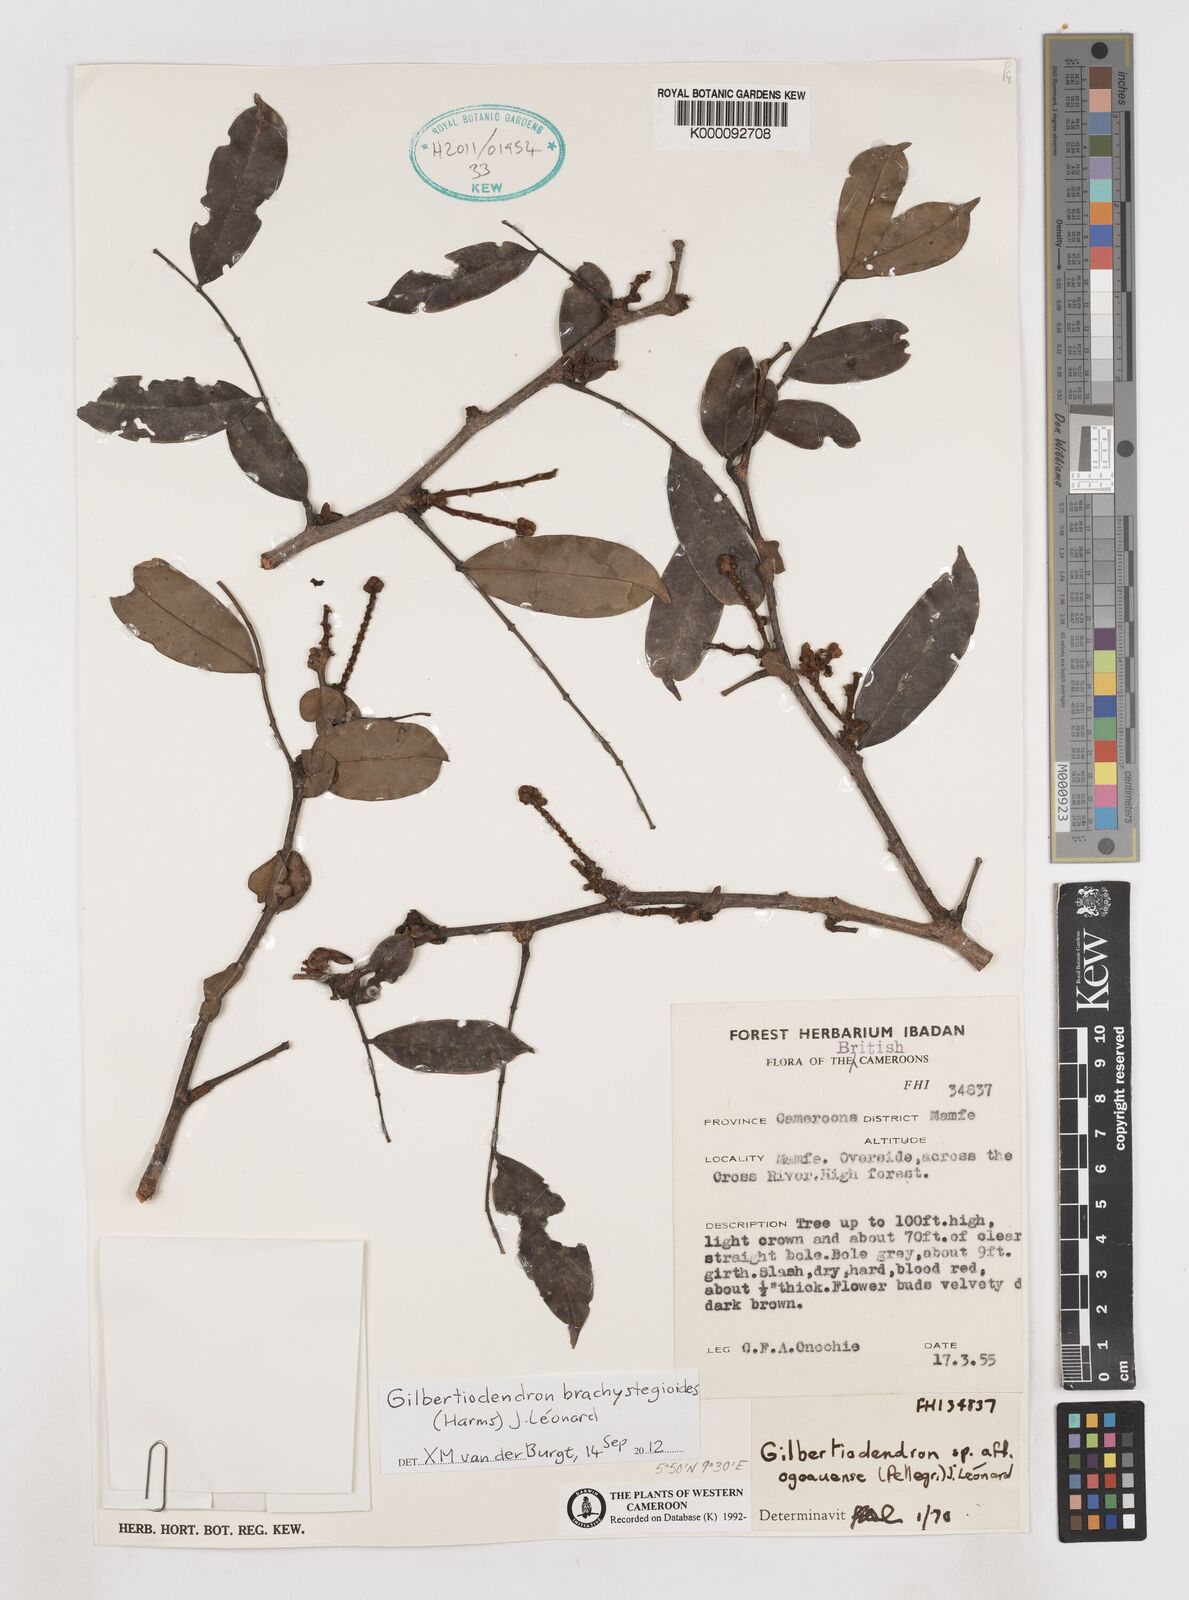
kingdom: Plantae
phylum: Tracheophyta
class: Magnoliopsida
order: Fabales
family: Fabaceae
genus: Gilbertiodendron
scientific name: Gilbertiodendron
